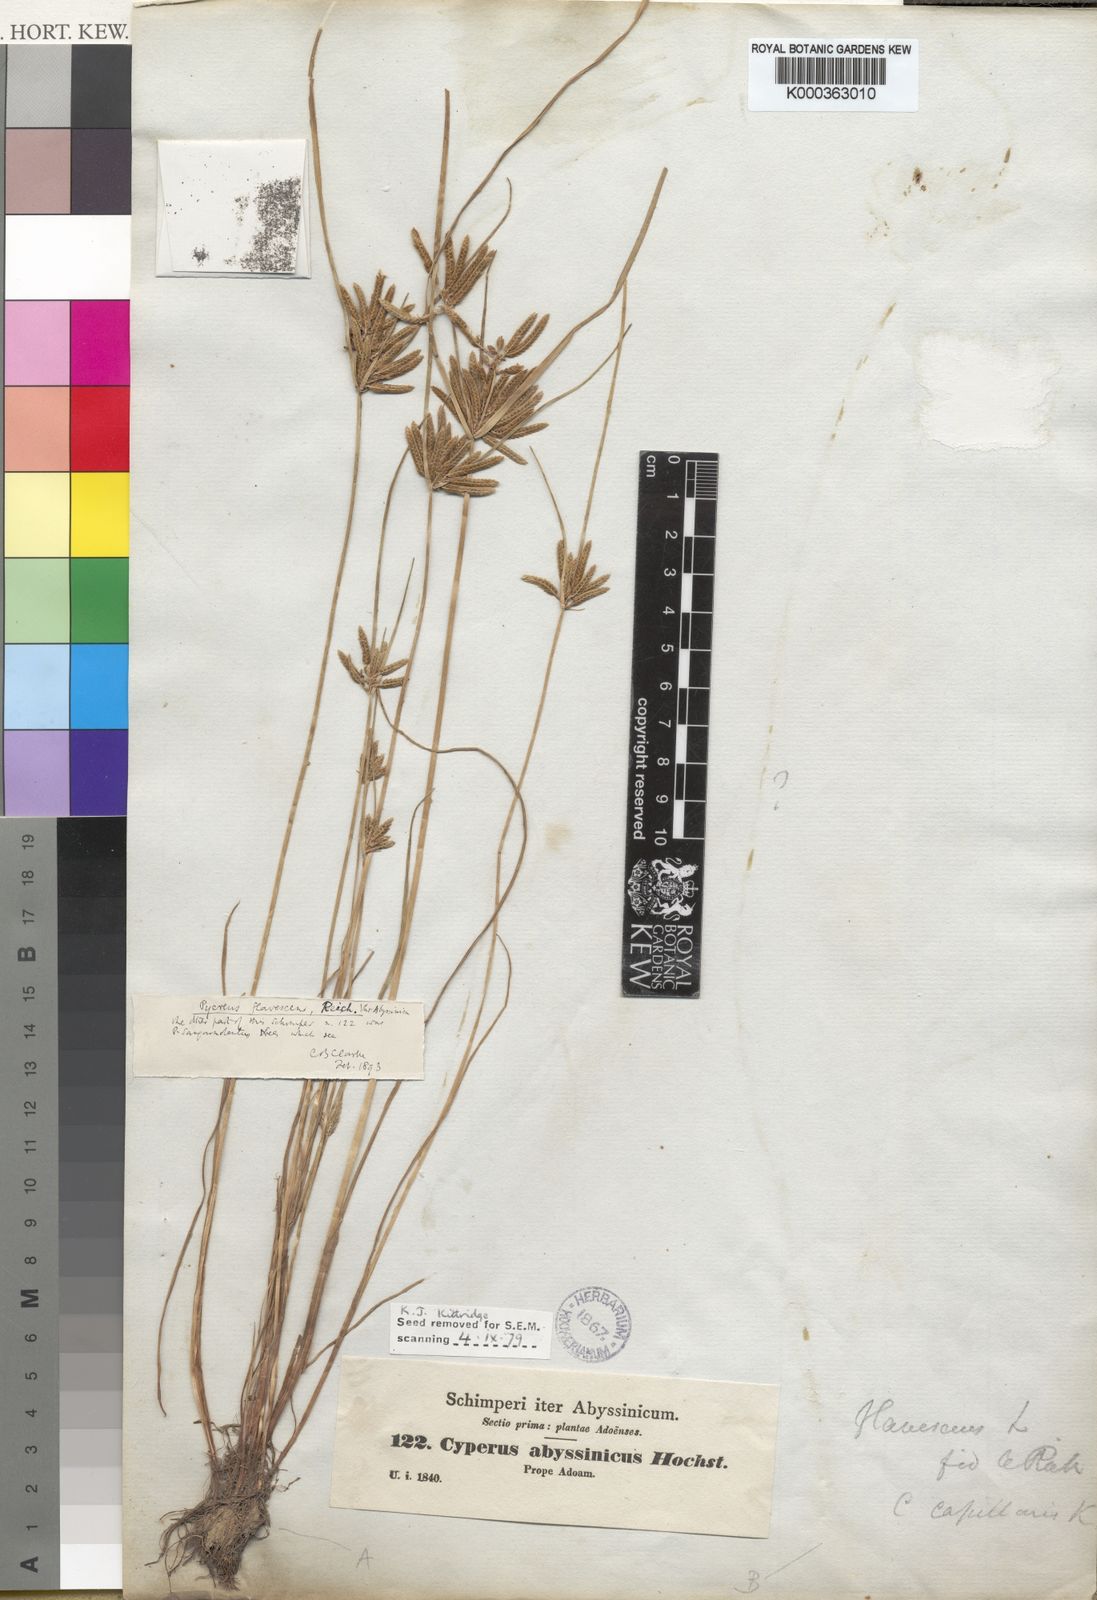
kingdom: Plantae
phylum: Tracheophyta
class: Liliopsida
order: Poales
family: Cyperaceae
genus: Cyperus
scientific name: Cyperus flavescens
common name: Yellow galingale
